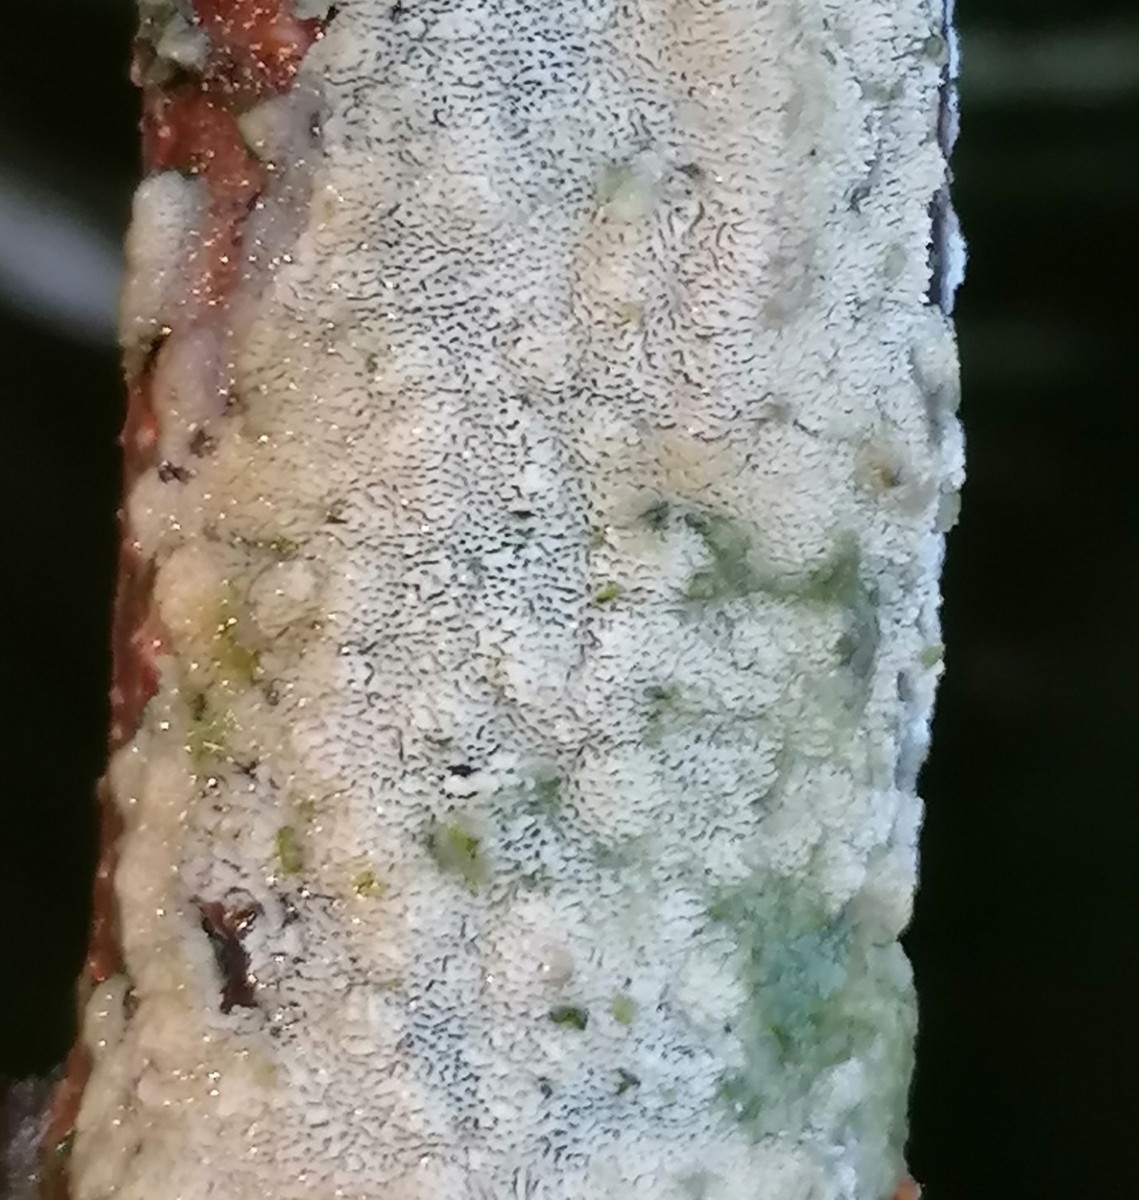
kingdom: Fungi
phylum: Basidiomycota
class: Agaricomycetes
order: Hymenochaetales
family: Schizoporaceae
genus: Xylodon
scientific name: Xylodon subtropicus
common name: labyrint-tandsvamp
